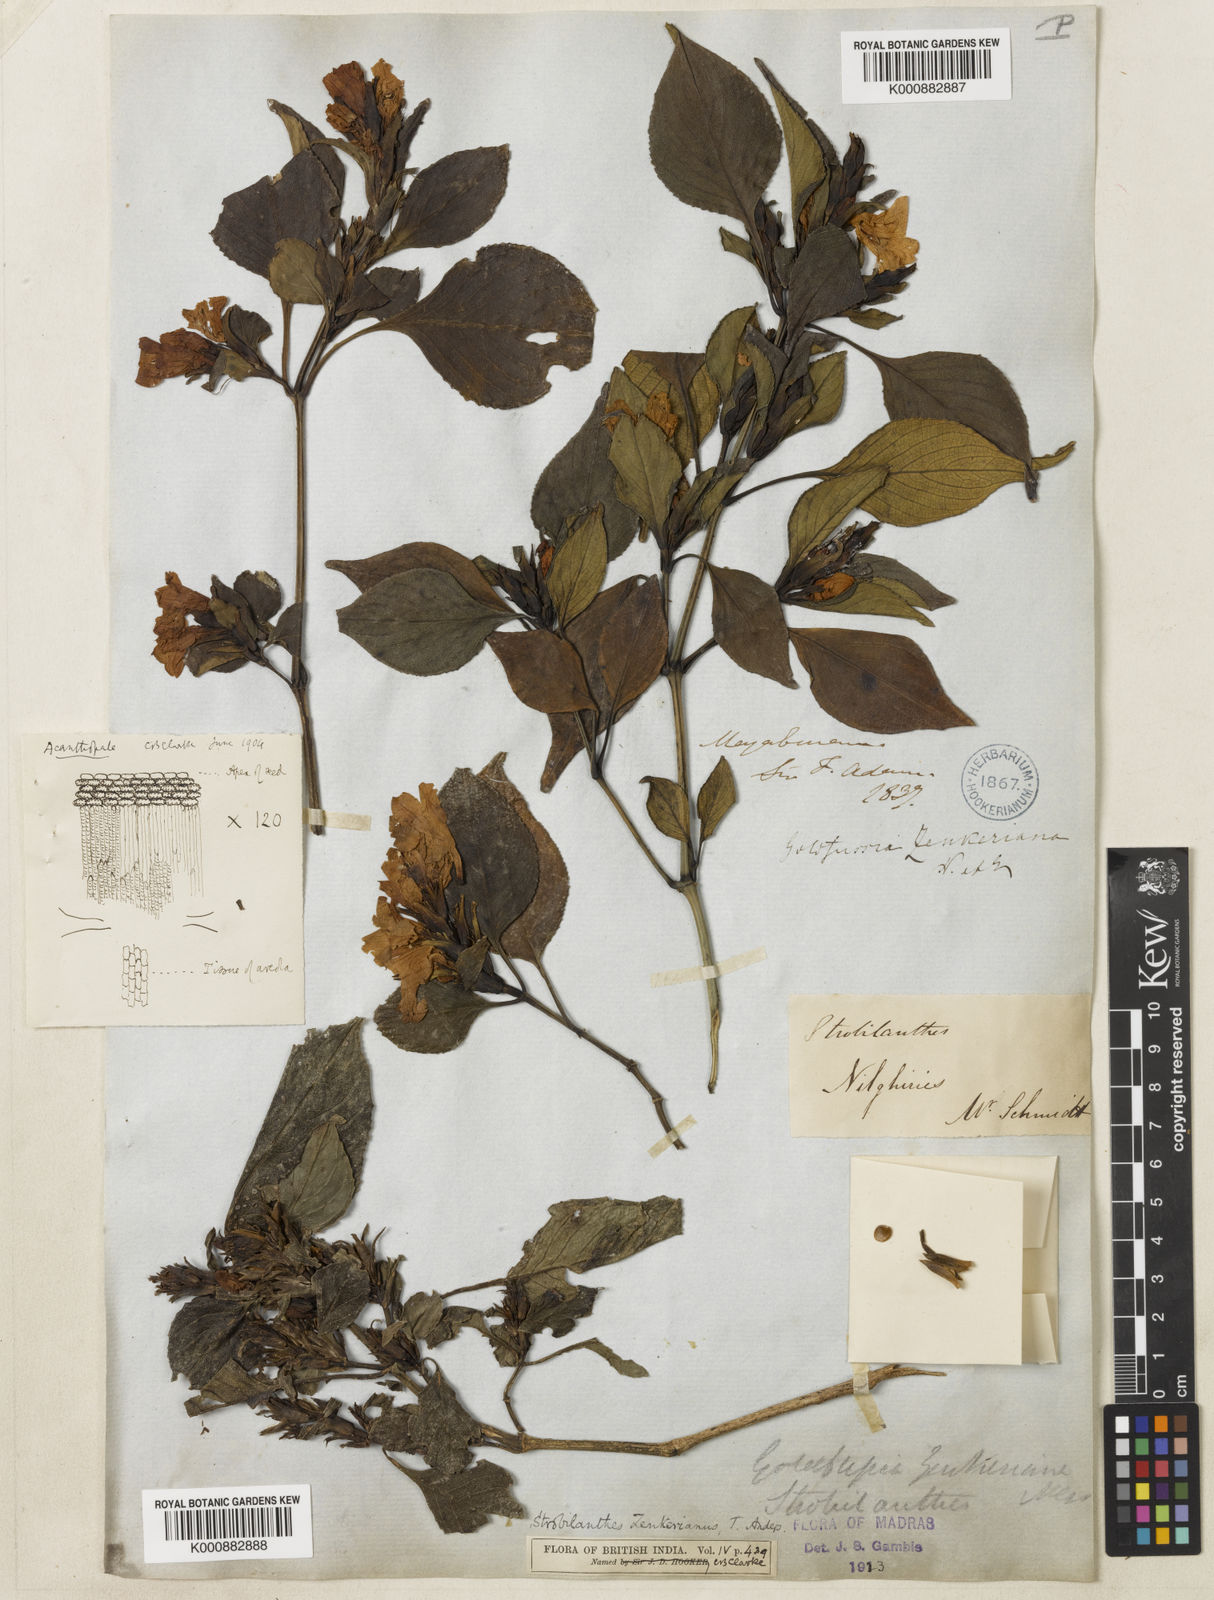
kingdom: Plantae
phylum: Tracheophyta
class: Magnoliopsida
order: Lamiales
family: Acanthaceae
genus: Strobilanthes
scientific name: Strobilanthes zenkeriana
